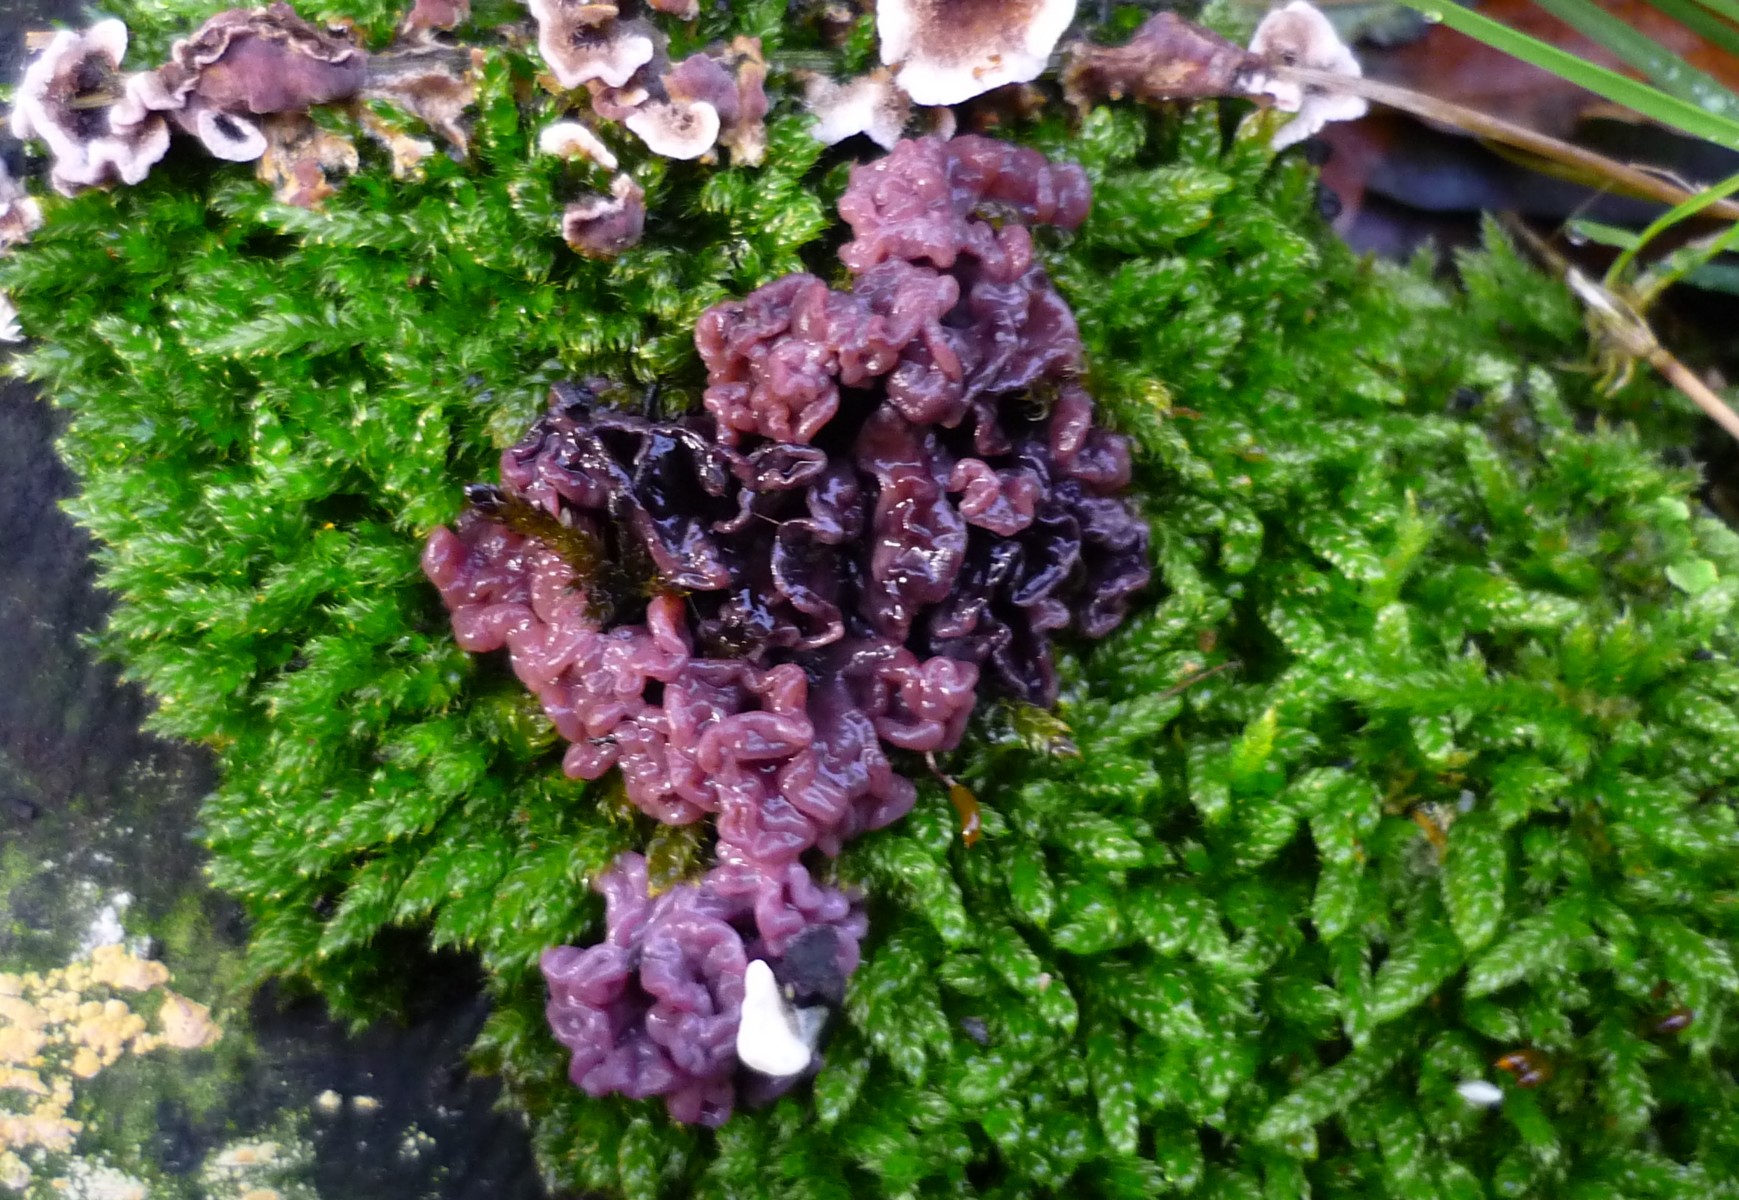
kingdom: Fungi
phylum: Ascomycota
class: Leotiomycetes
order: Helotiales
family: Gelatinodiscaceae
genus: Ascocoryne
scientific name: Ascocoryne sarcoides
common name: rødlilla sejskive
